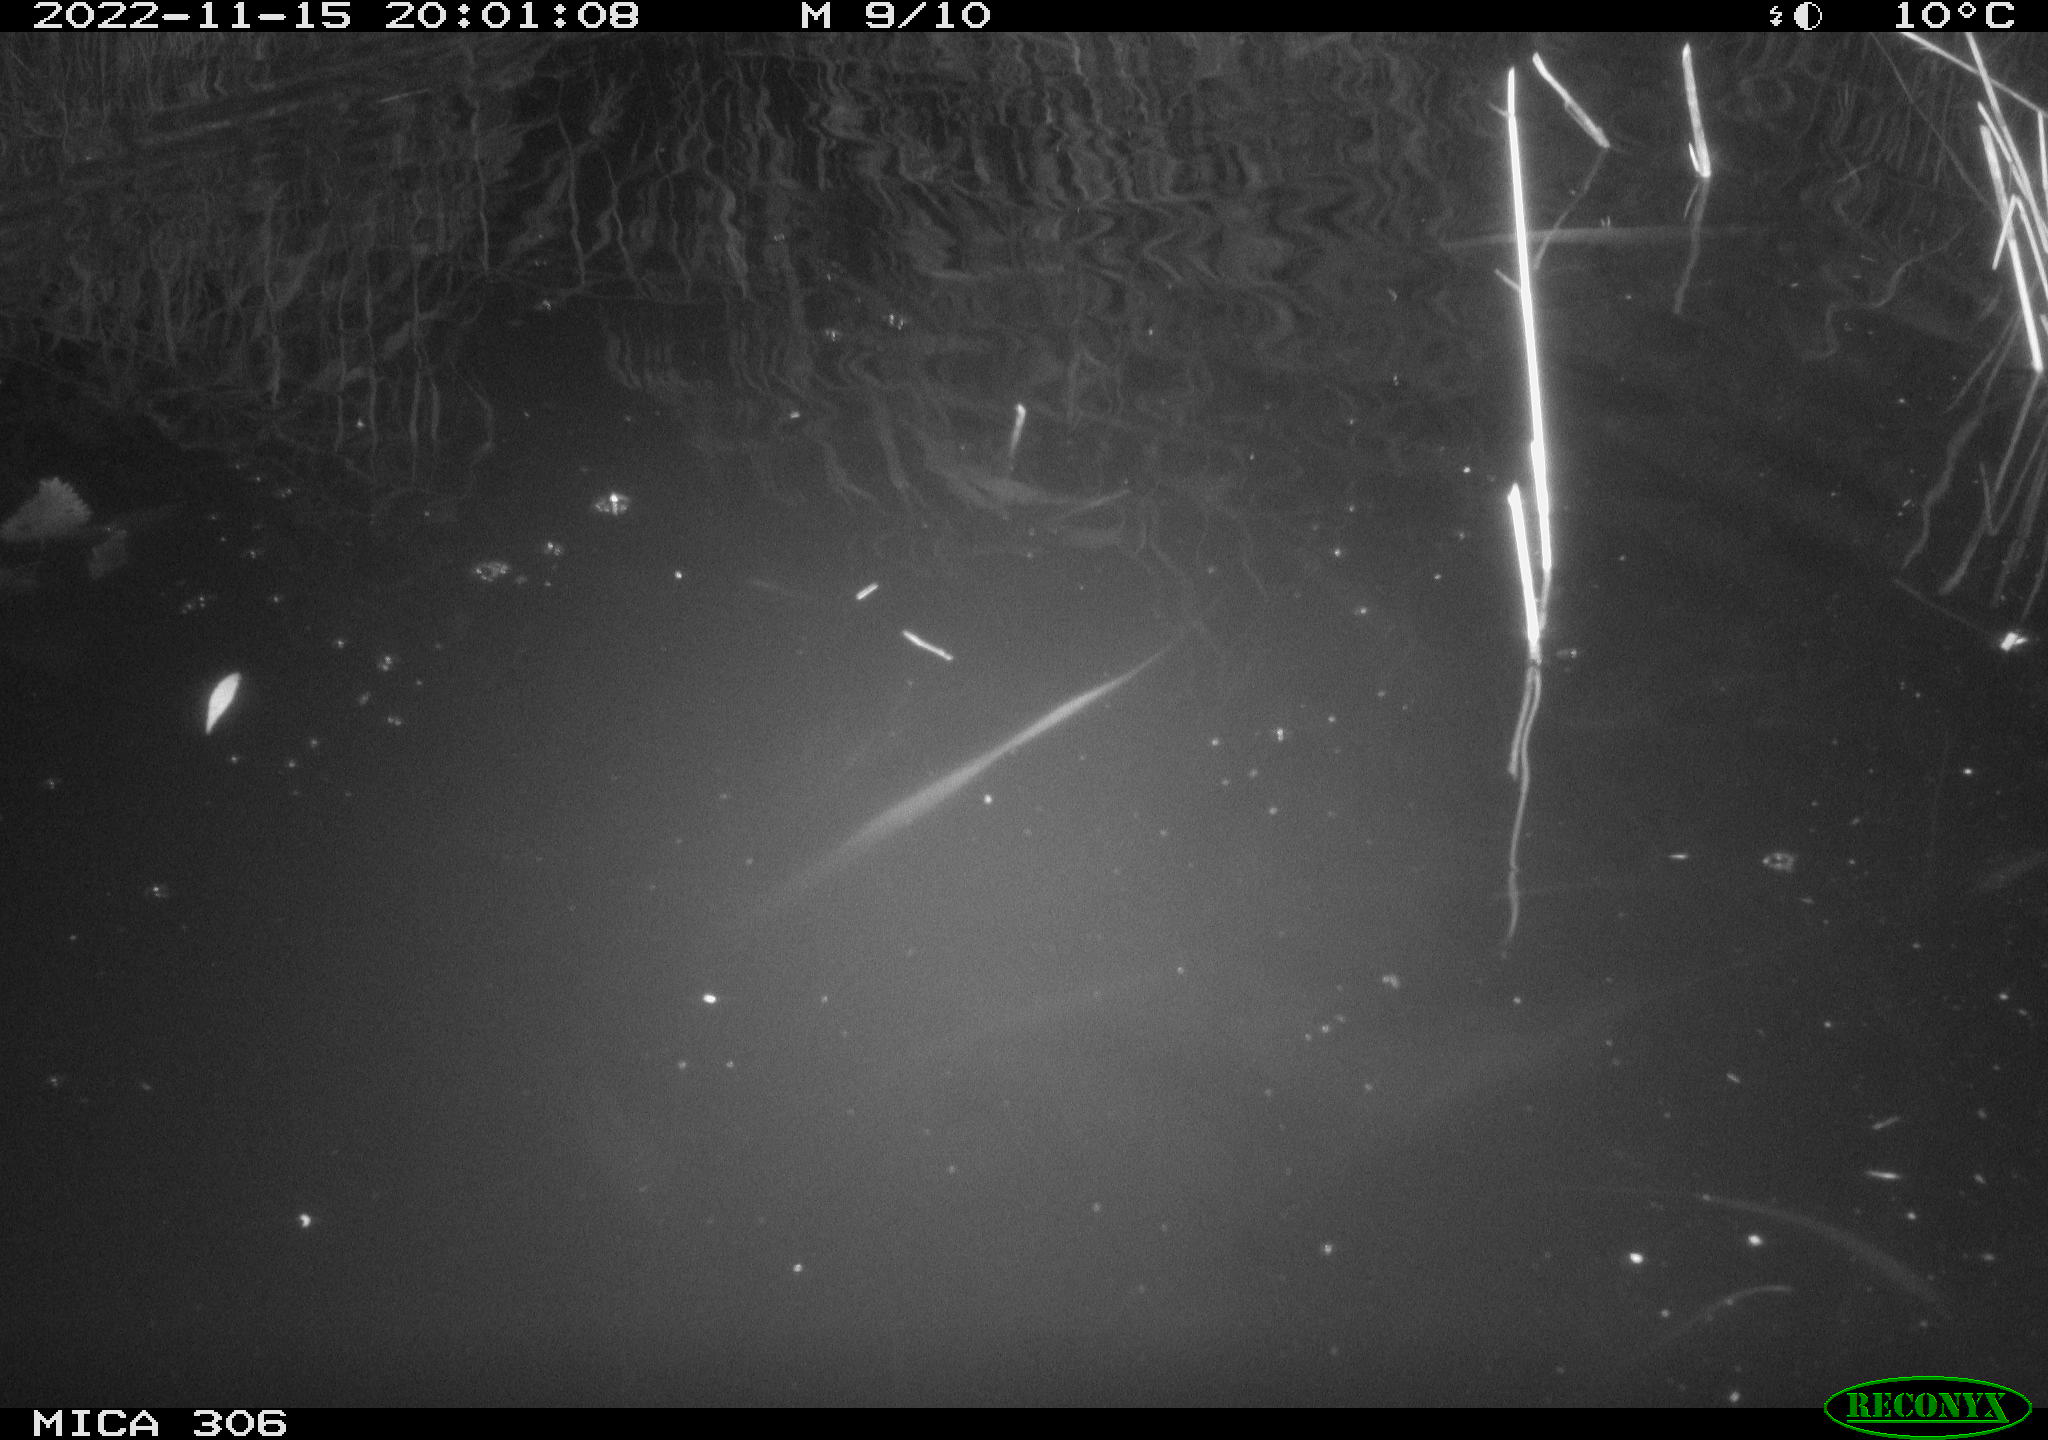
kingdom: Animalia
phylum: Chordata
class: Mammalia
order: Rodentia
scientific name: Rodentia
